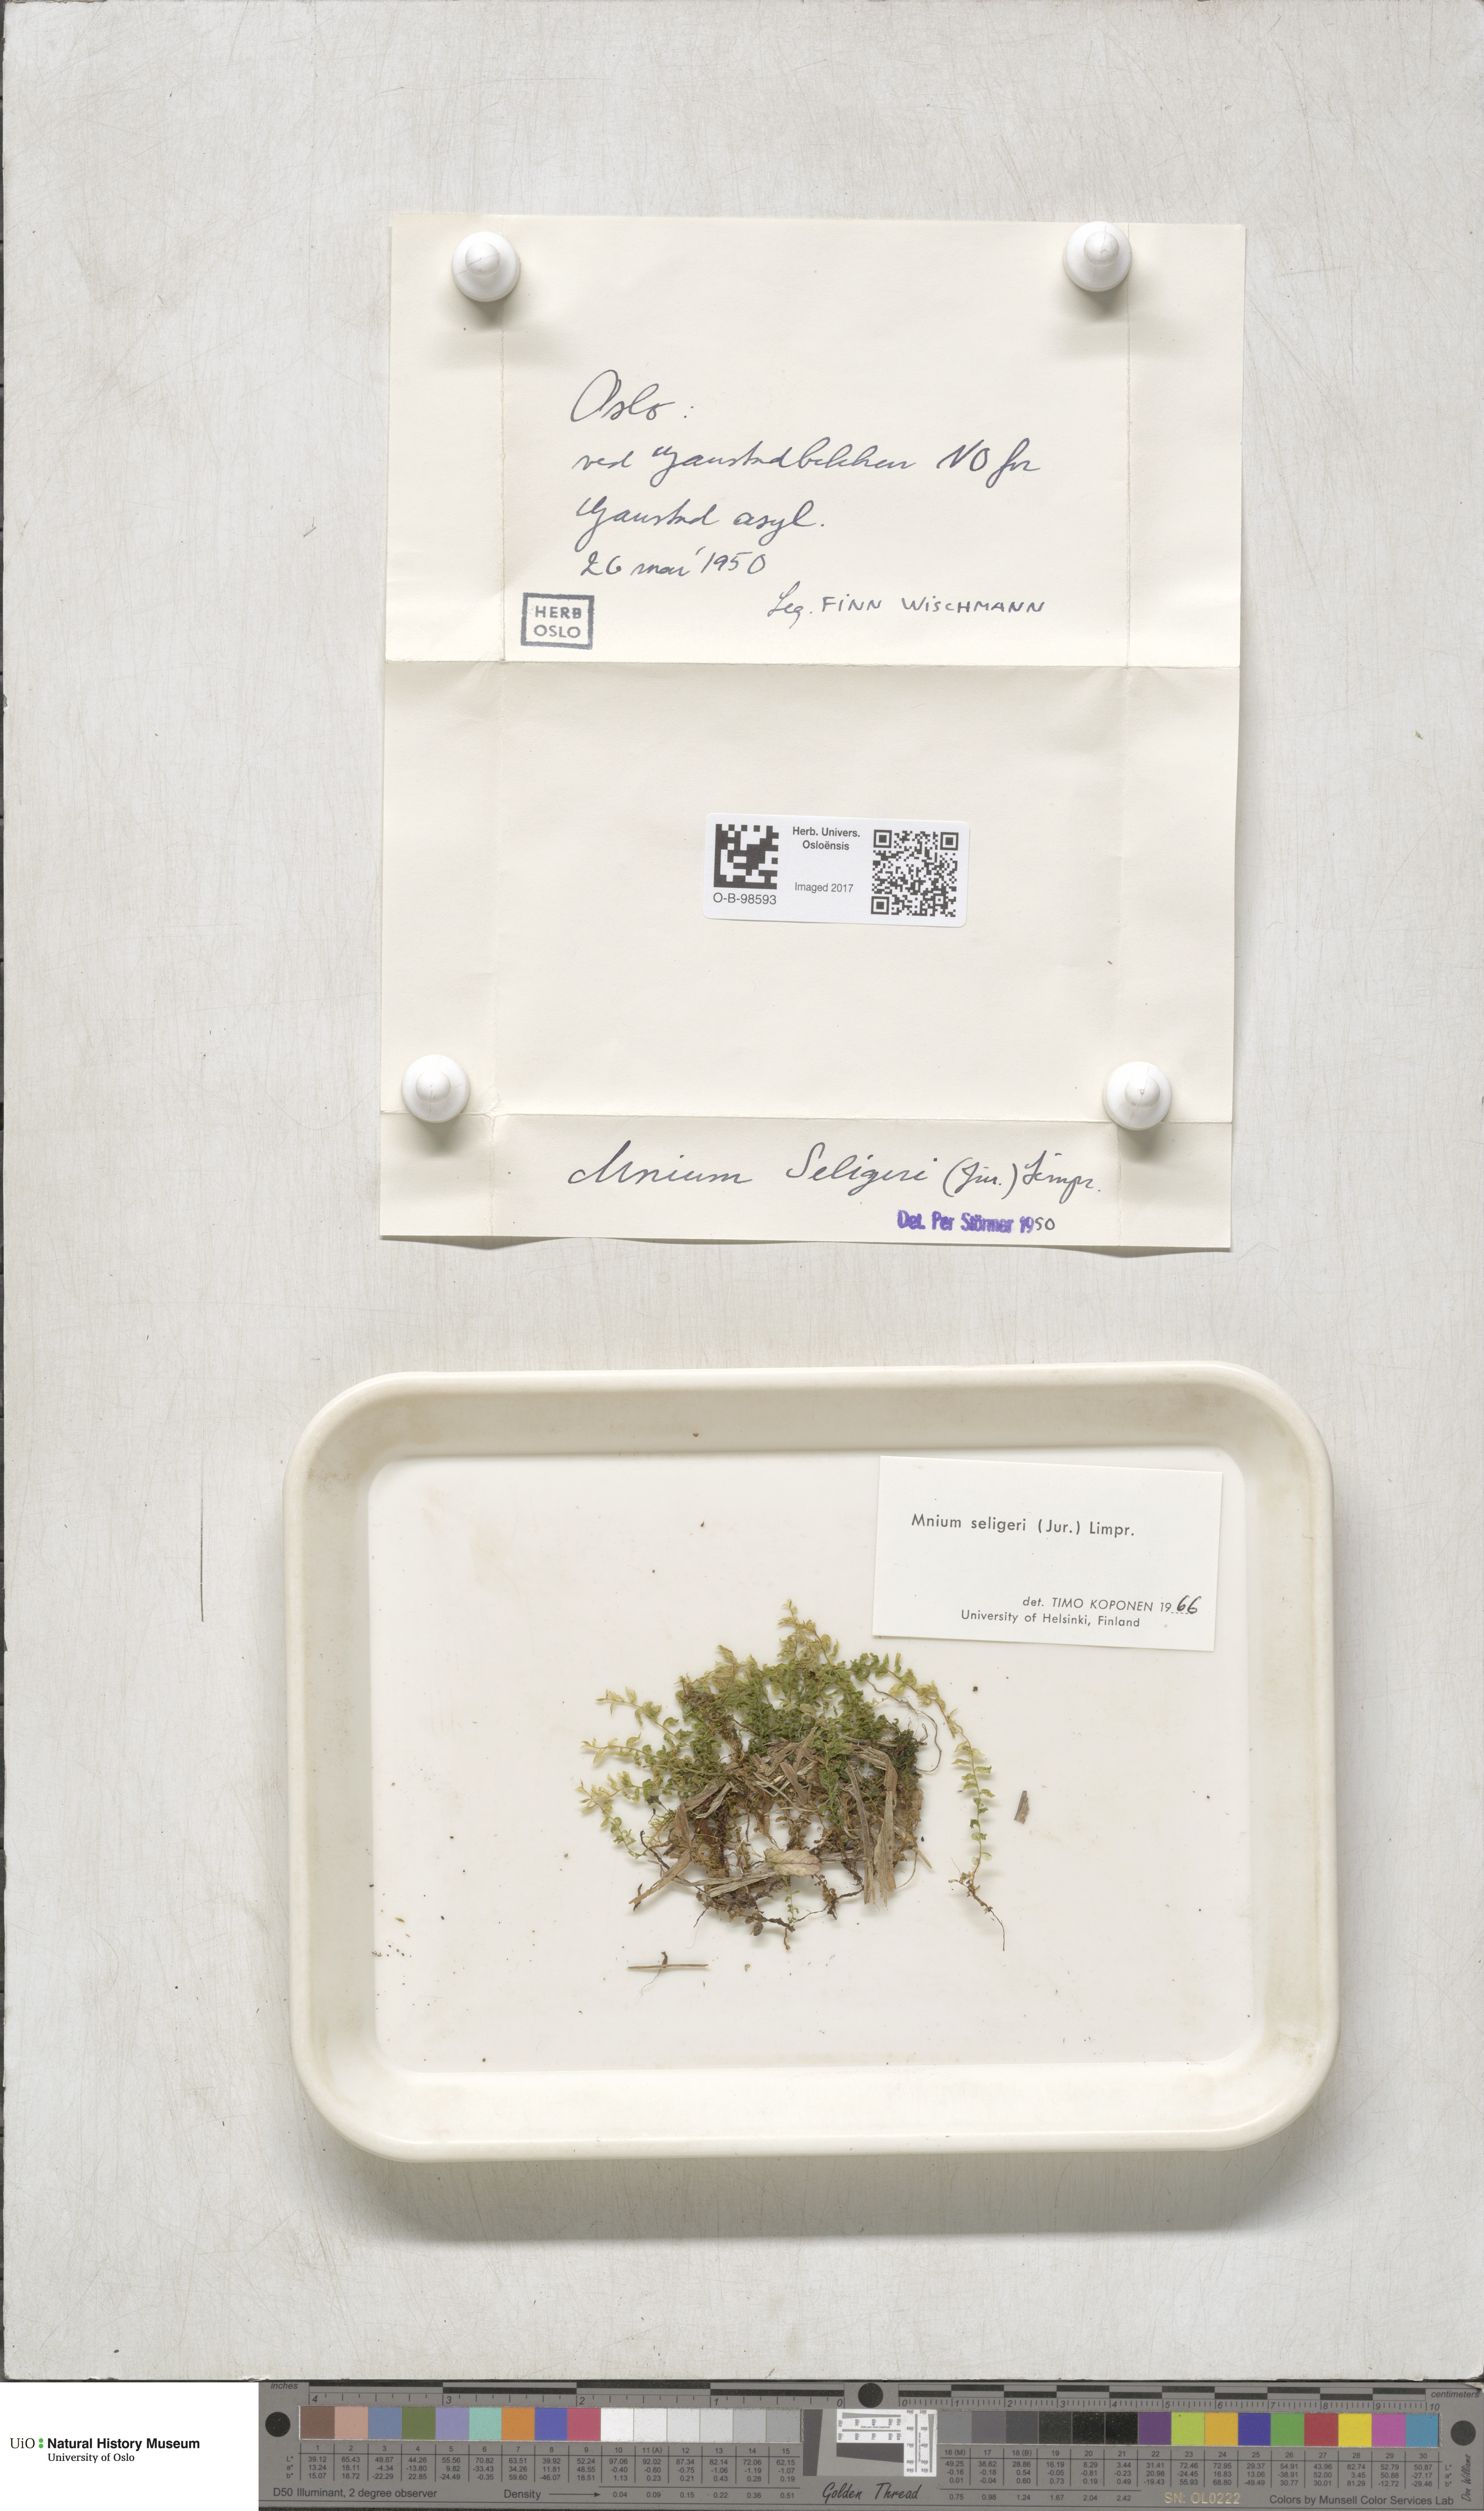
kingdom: Plantae
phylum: Bryophyta
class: Bryopsida
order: Bryales
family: Mniaceae
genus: Plagiomnium
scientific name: Plagiomnium elatum
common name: Tall thyme-moss
